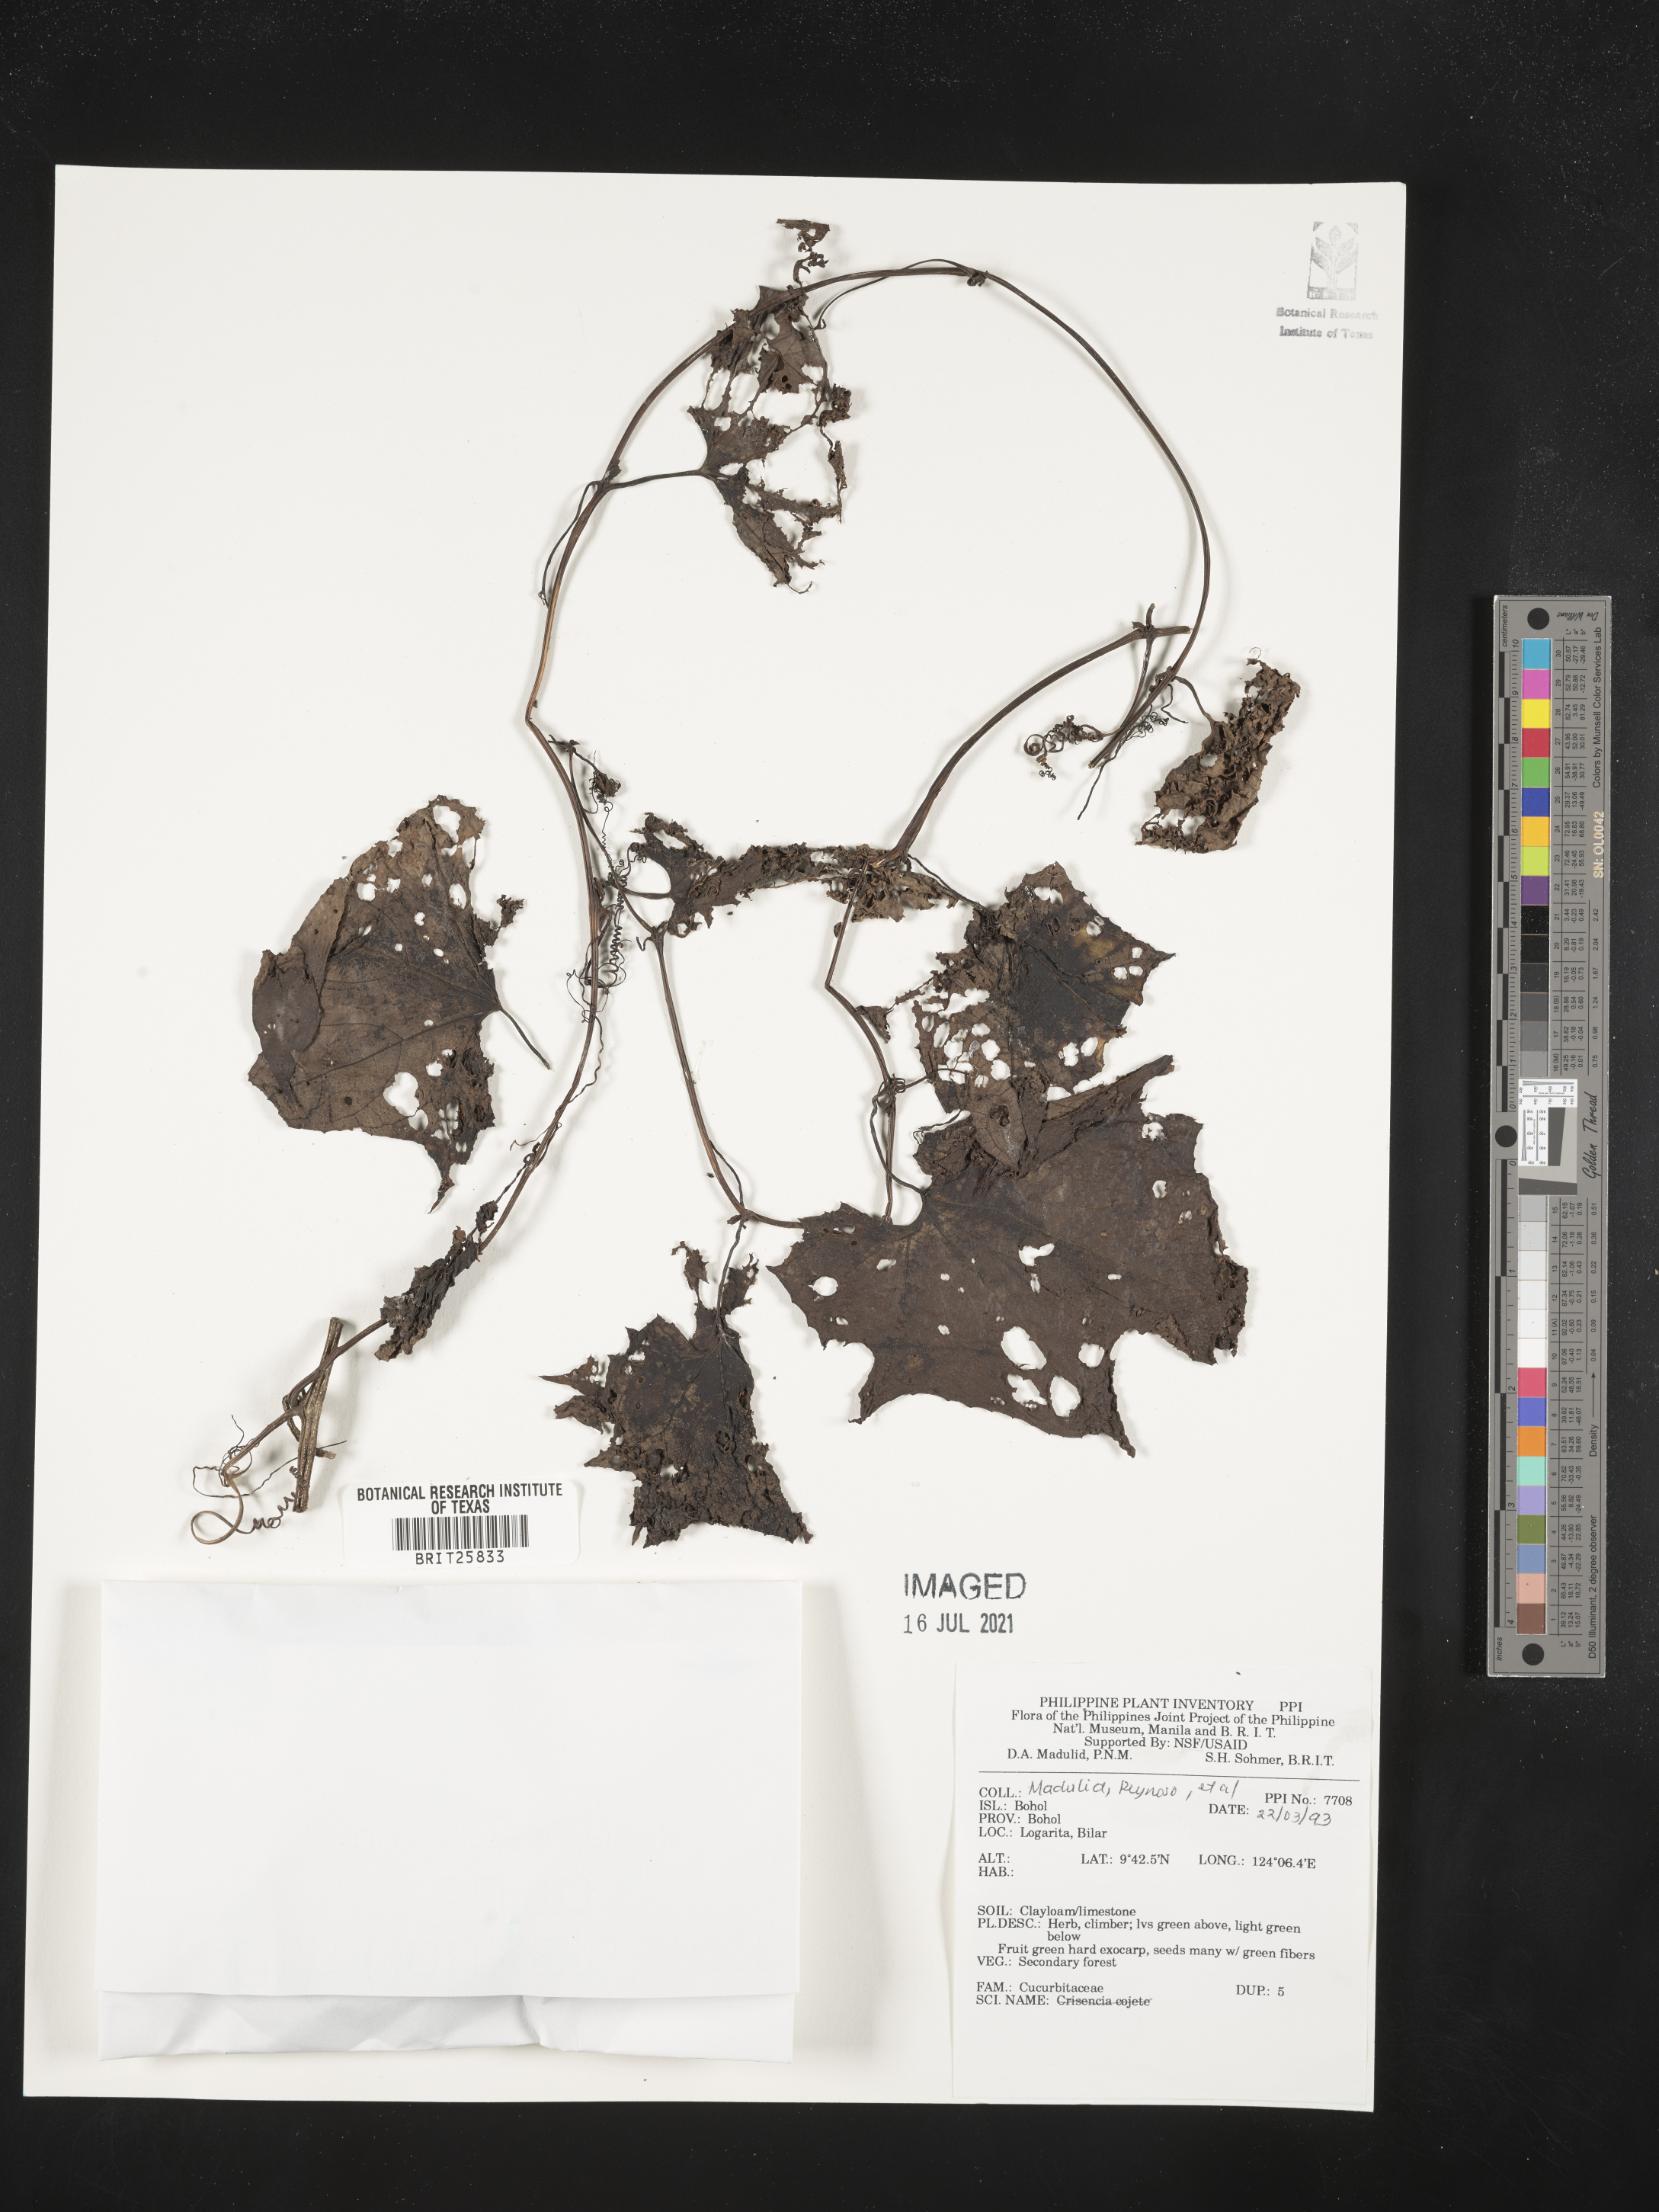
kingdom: Plantae
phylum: Tracheophyta
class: Magnoliopsida
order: Cucurbitales
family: Cucurbitaceae
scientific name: Cucurbitaceae
